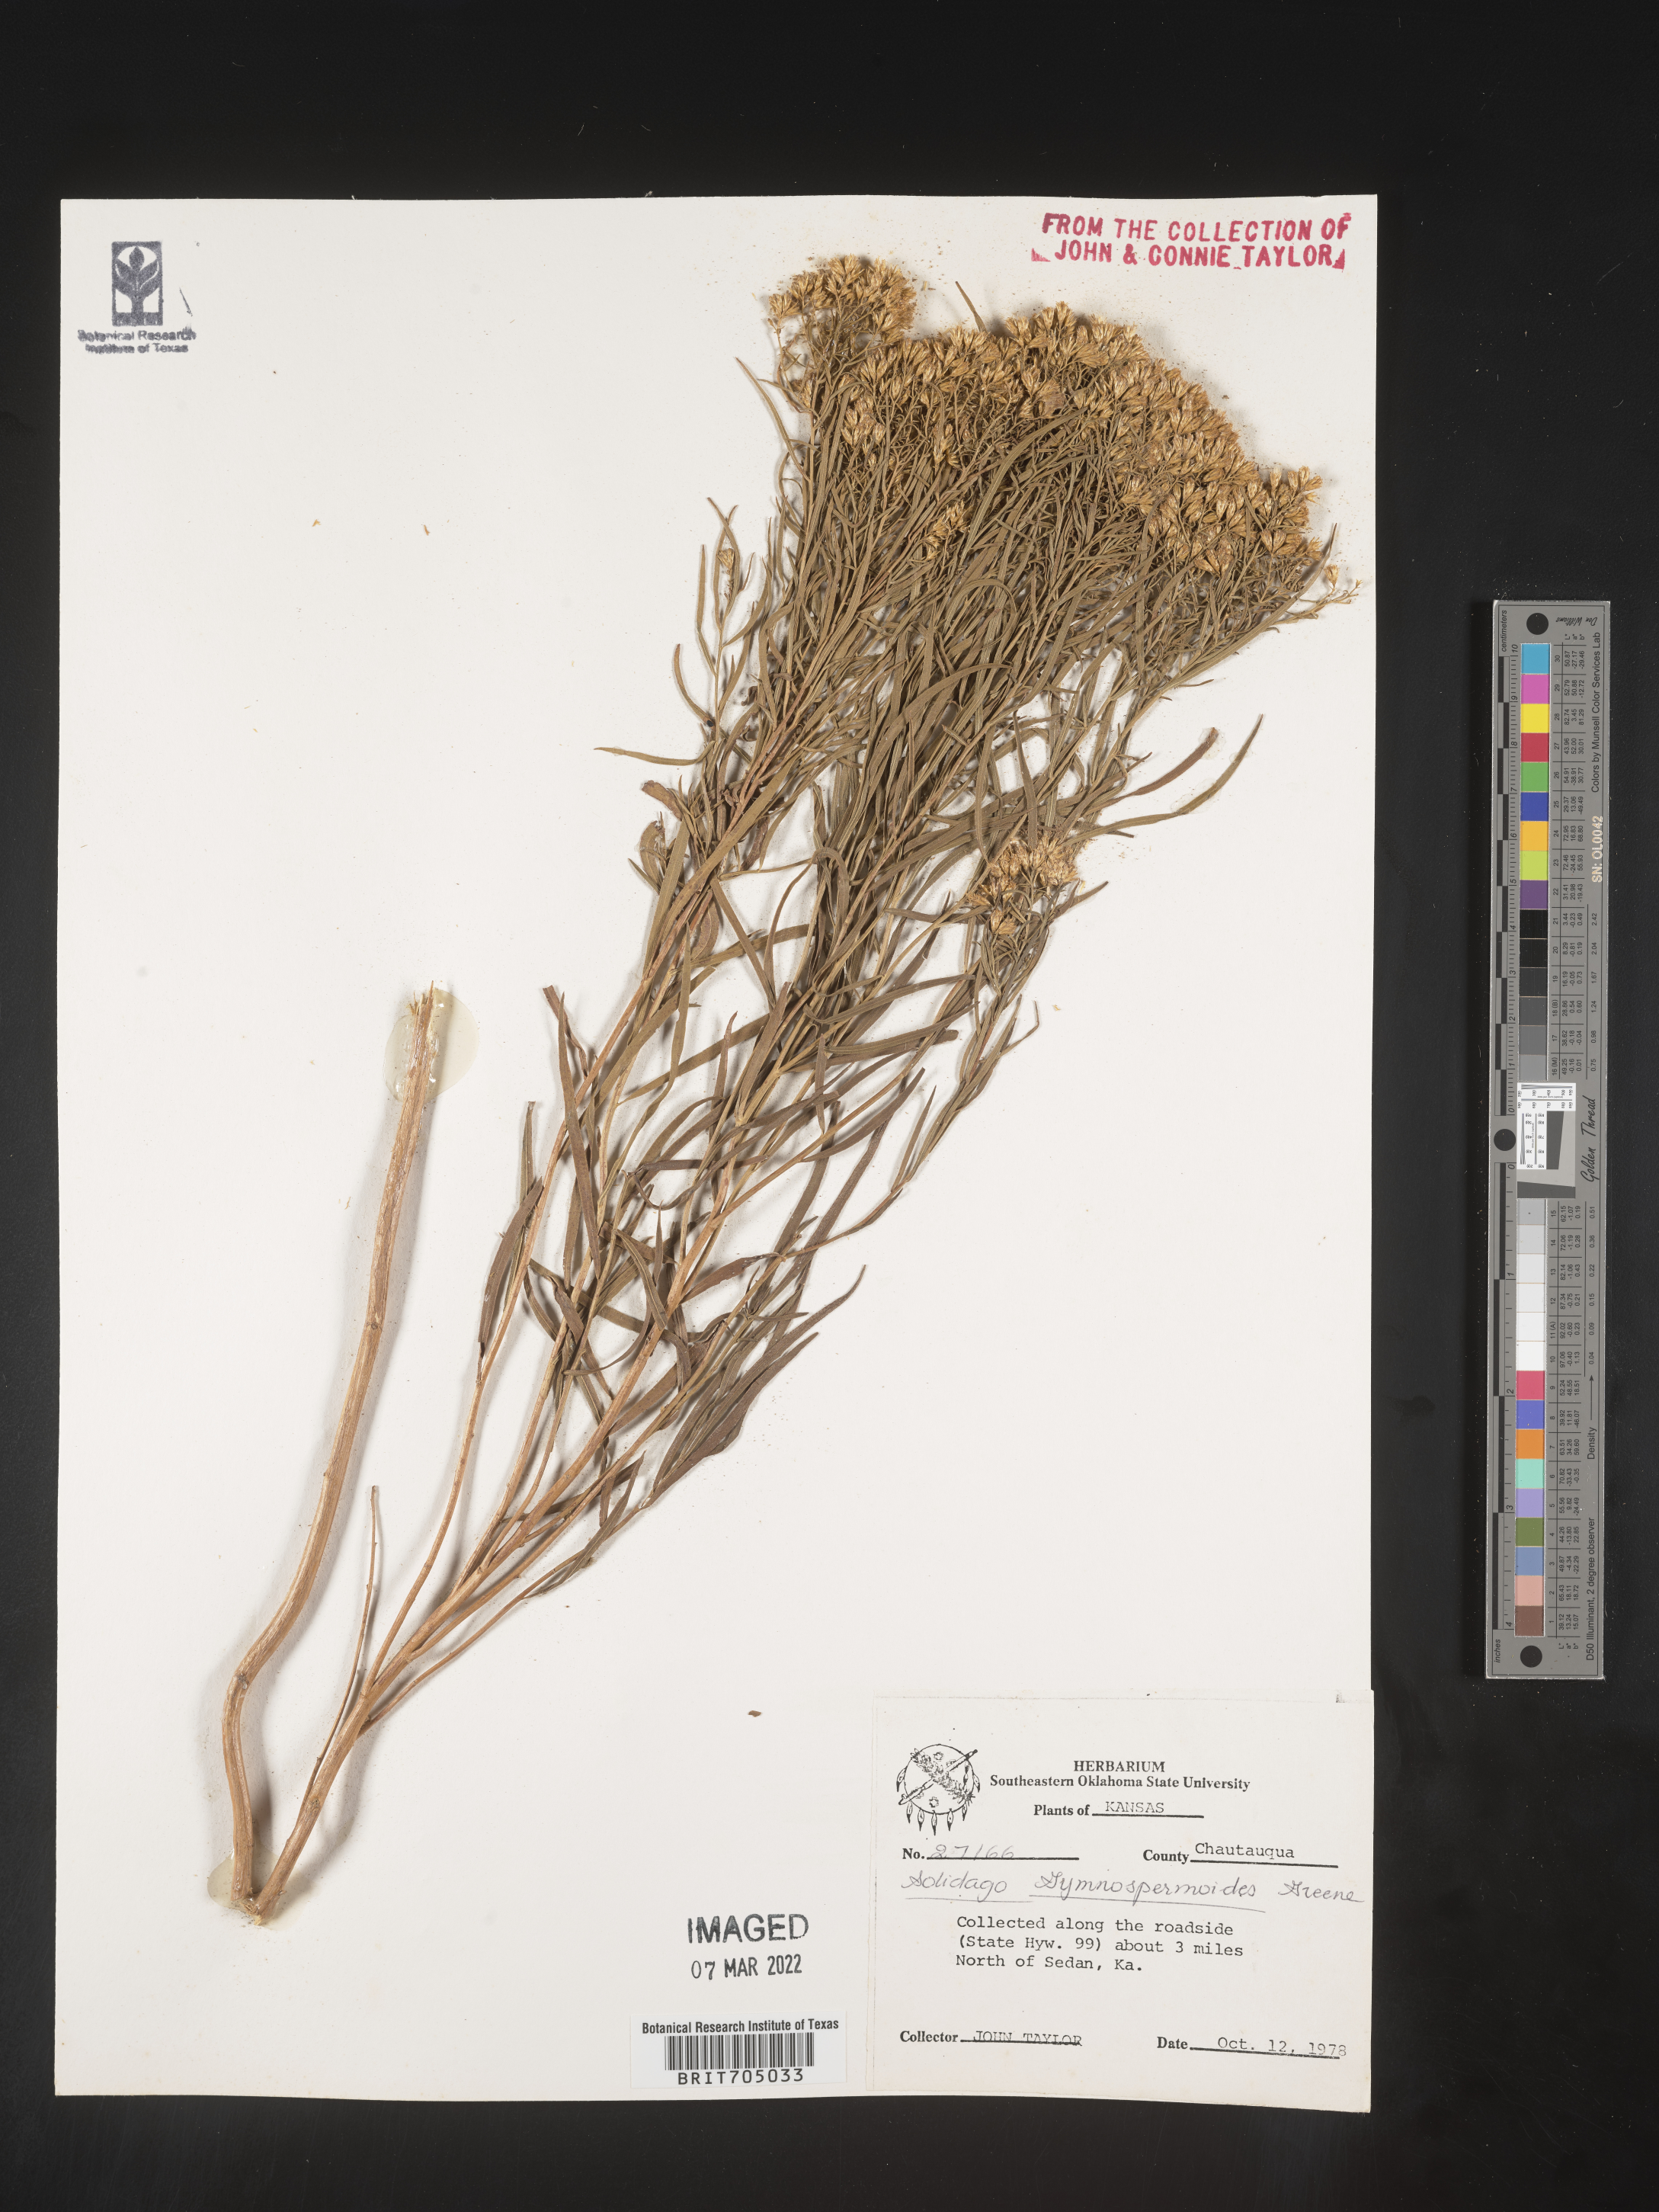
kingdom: Plantae
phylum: Tracheophyta
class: Magnoliopsida
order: Asterales
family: Asteraceae
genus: Euthamia
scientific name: Euthamia gymnospermoides
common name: Great plains goldentop
